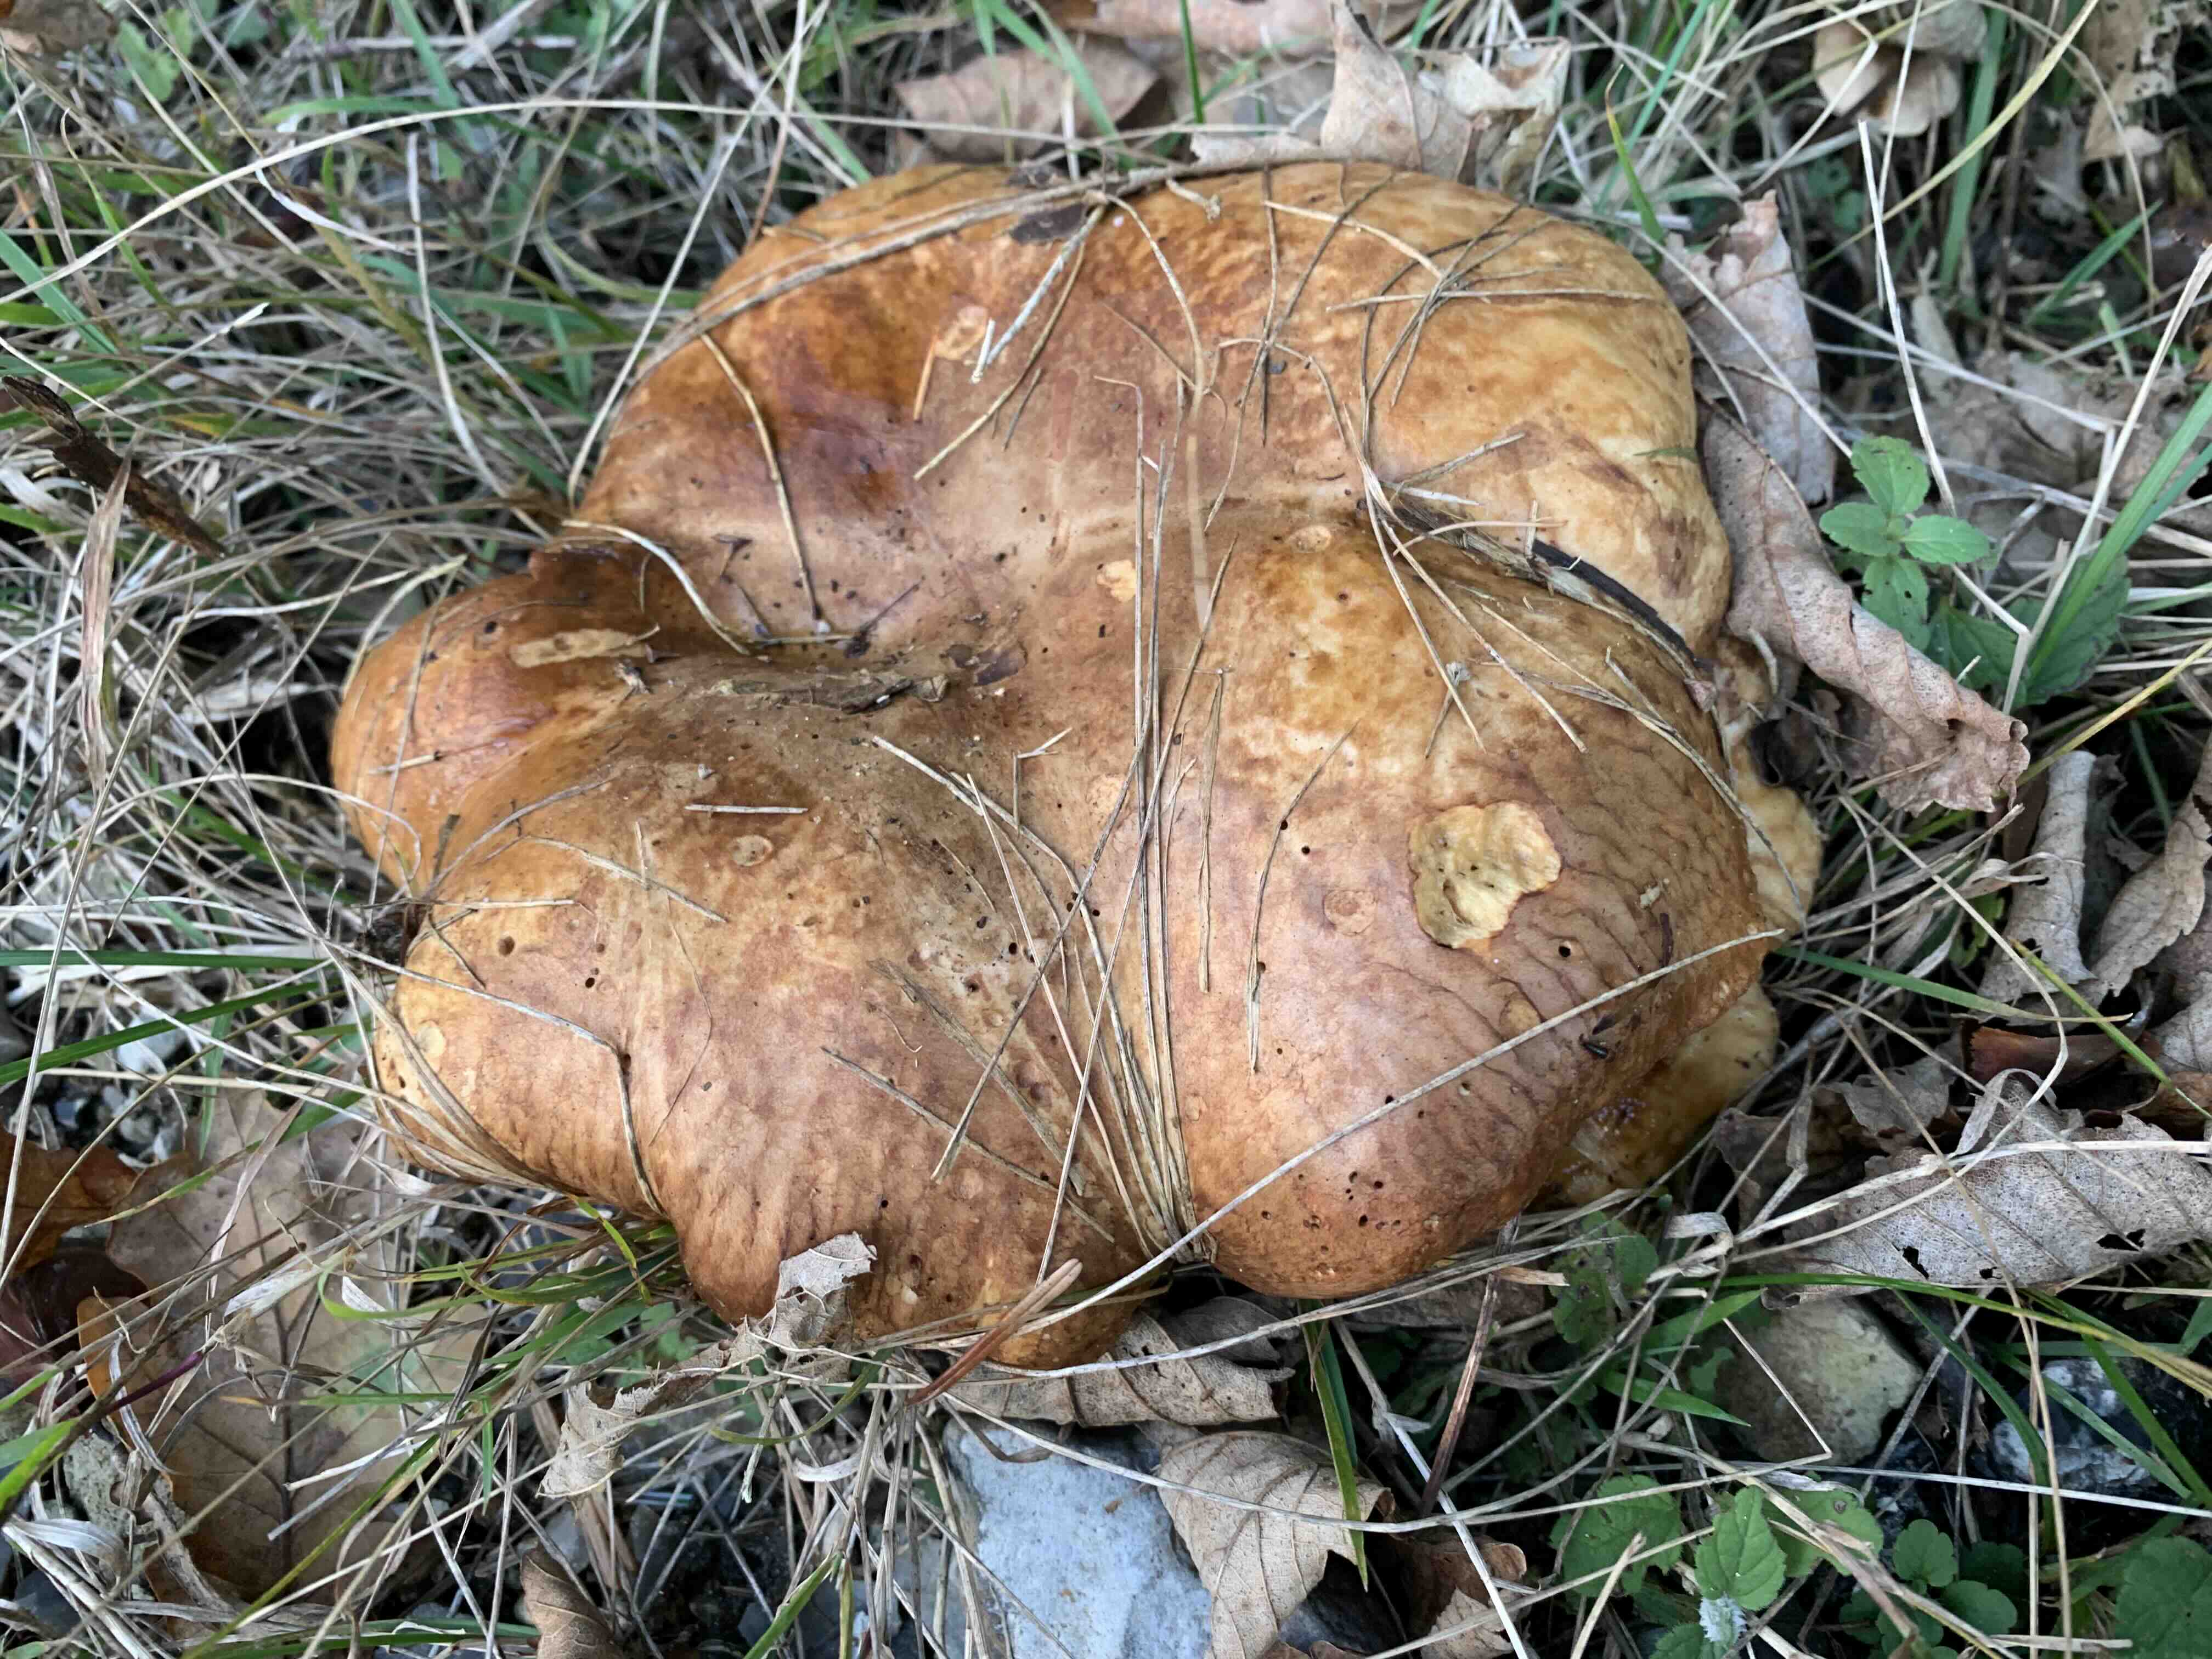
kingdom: Fungi
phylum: Basidiomycota
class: Agaricomycetes
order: Boletales
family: Paxillaceae
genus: Paxillus
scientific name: Paxillus
